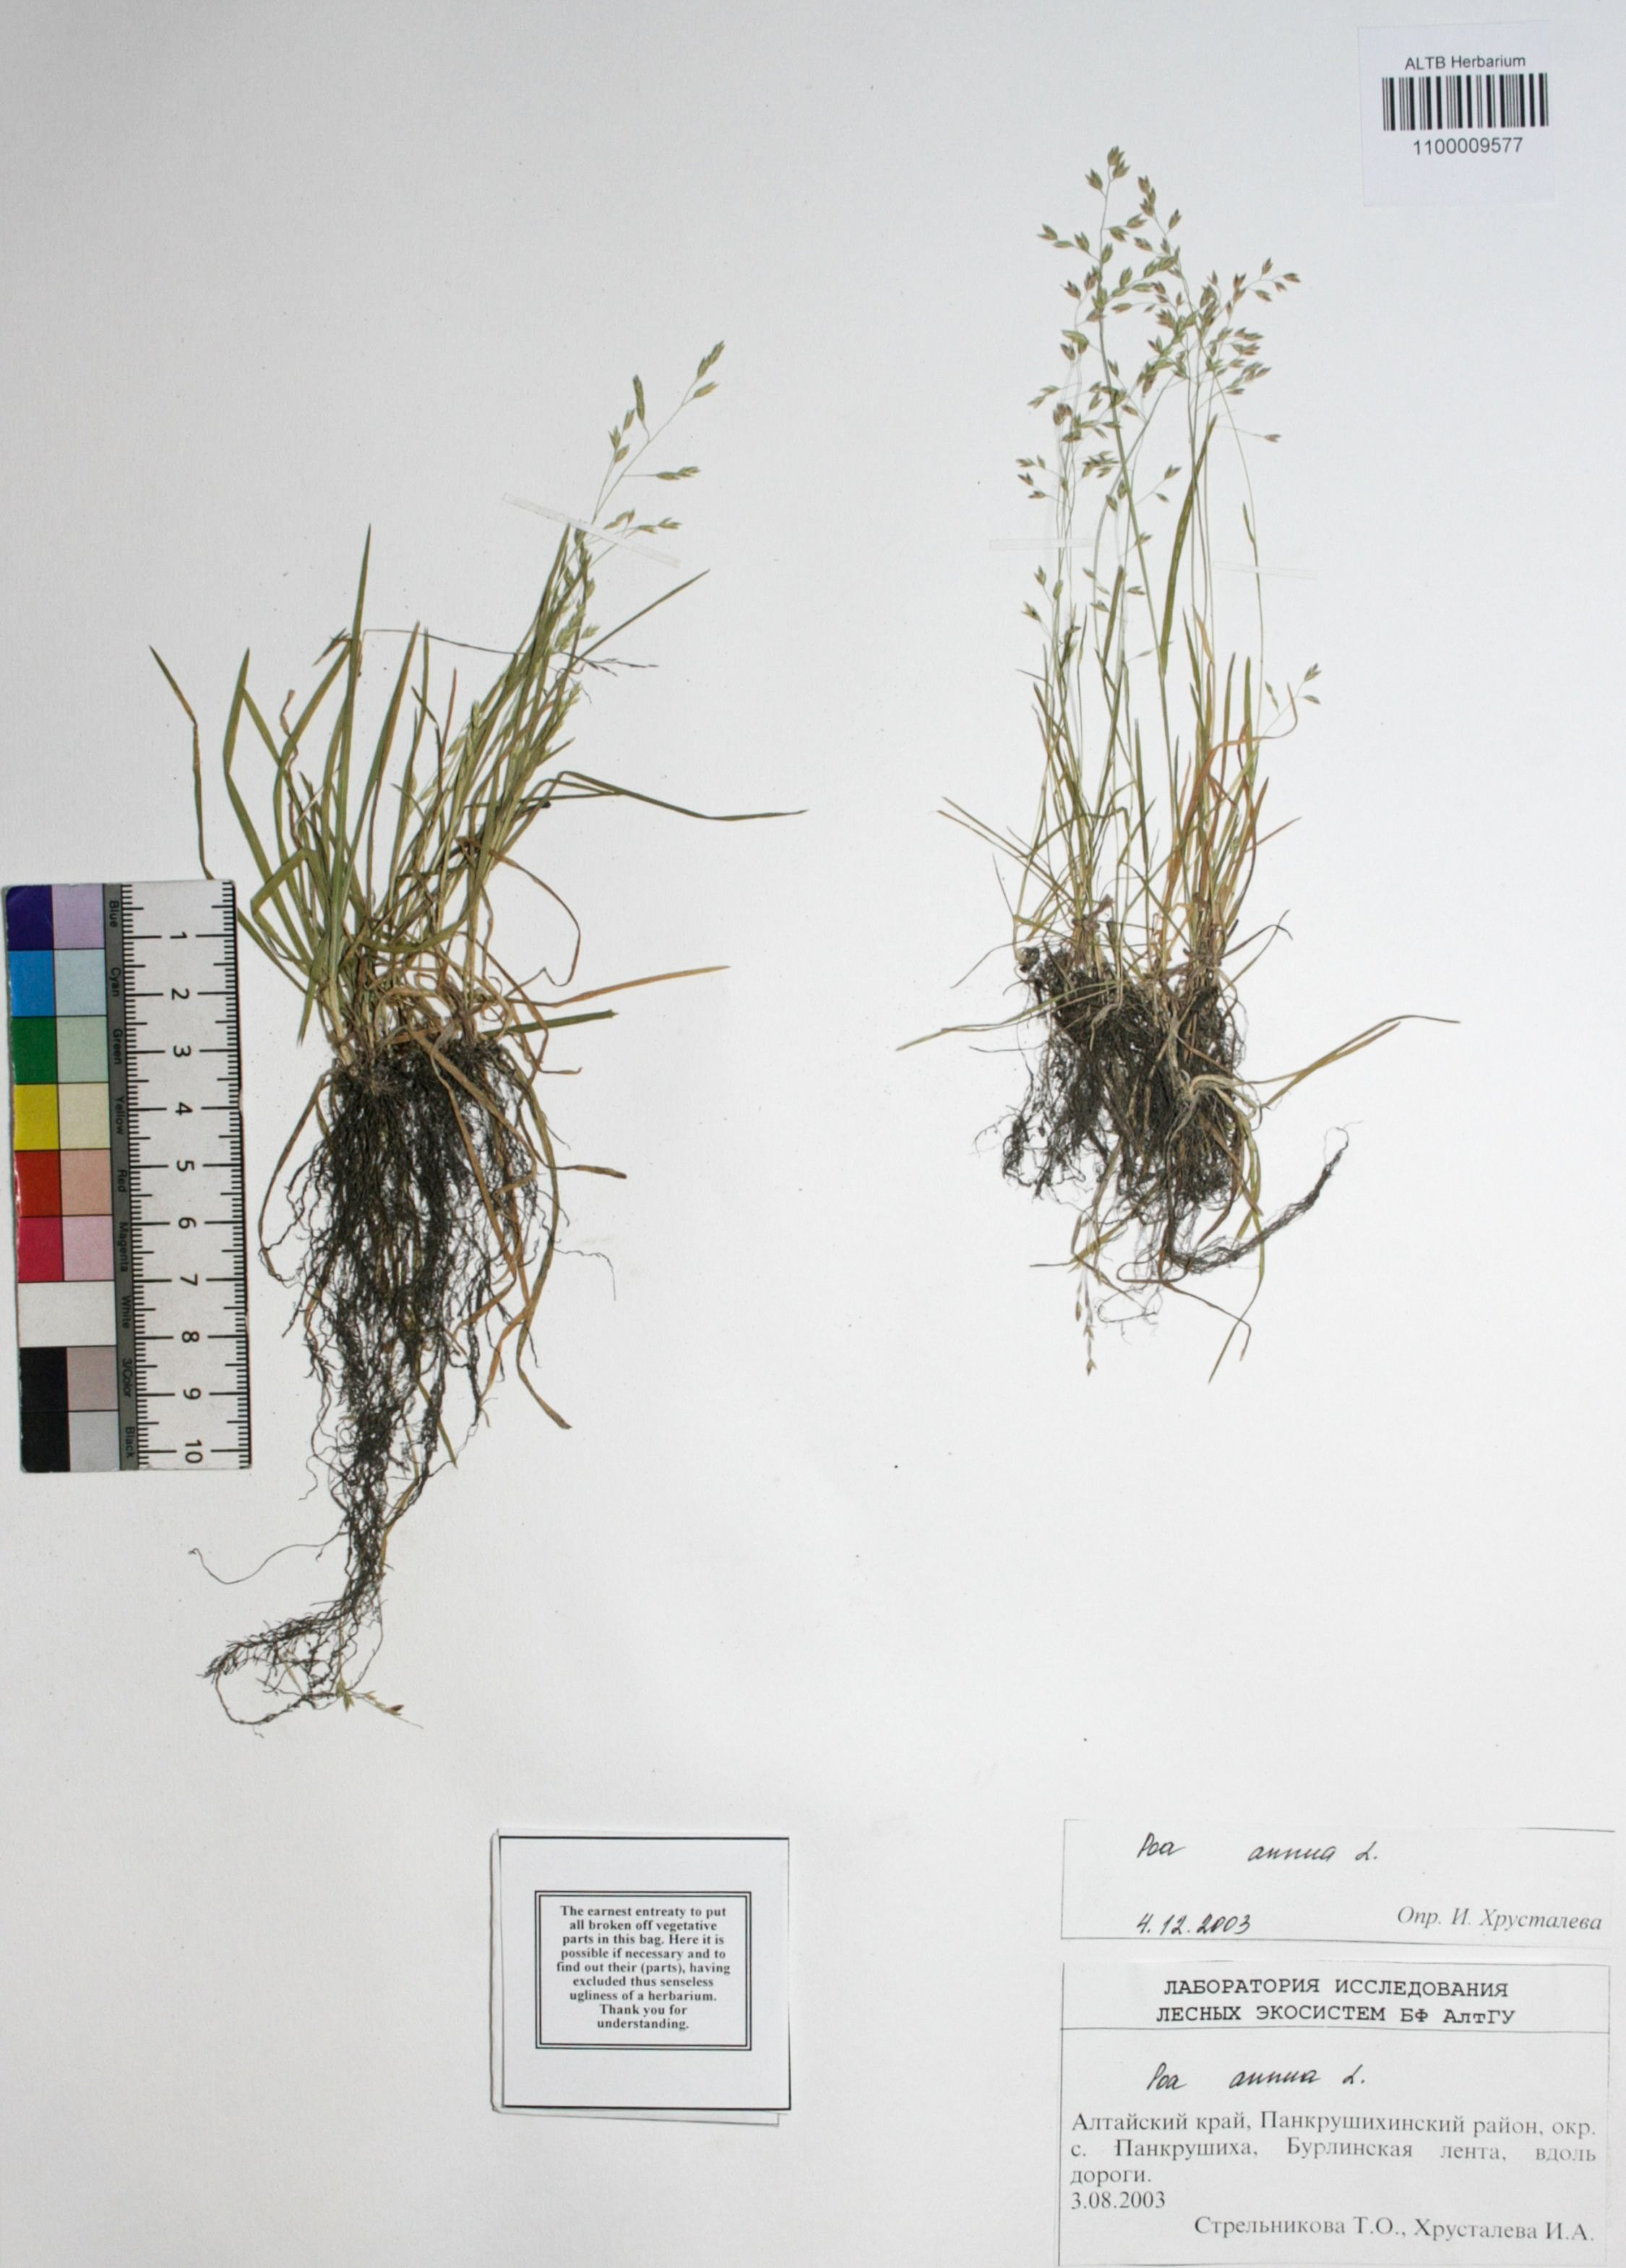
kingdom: Plantae
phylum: Tracheophyta
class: Liliopsida
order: Poales
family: Poaceae
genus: Poa
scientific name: Poa annua
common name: Annual bluegrass
